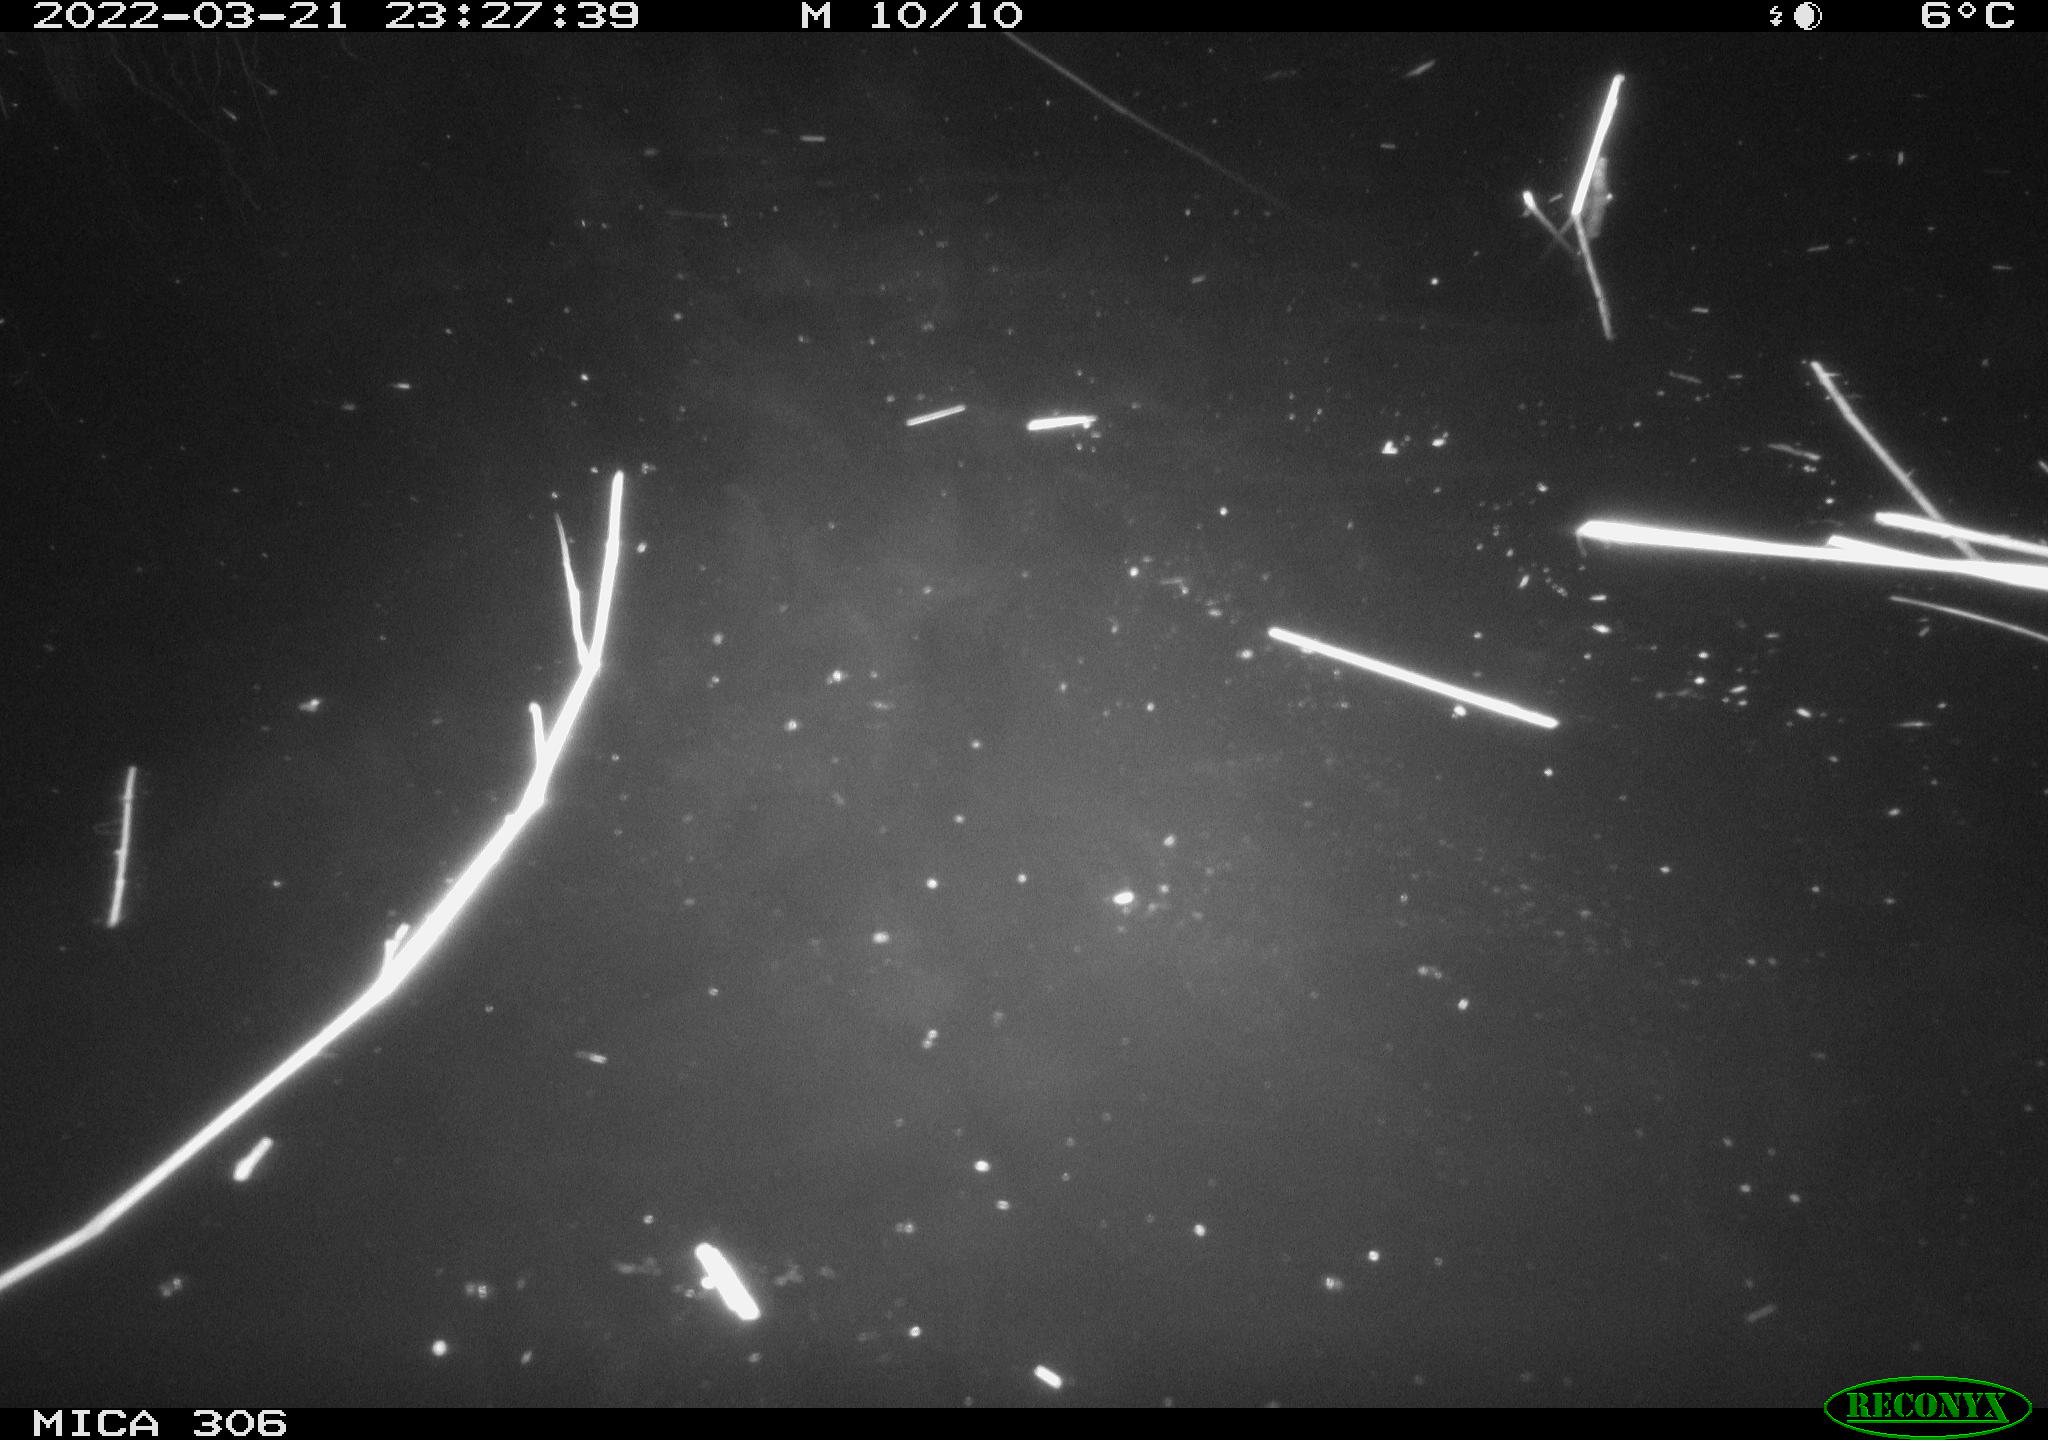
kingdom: Animalia
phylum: Chordata
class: Aves
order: Anseriformes
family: Anatidae
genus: Anas
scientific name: Anas platyrhynchos
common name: Mallard
